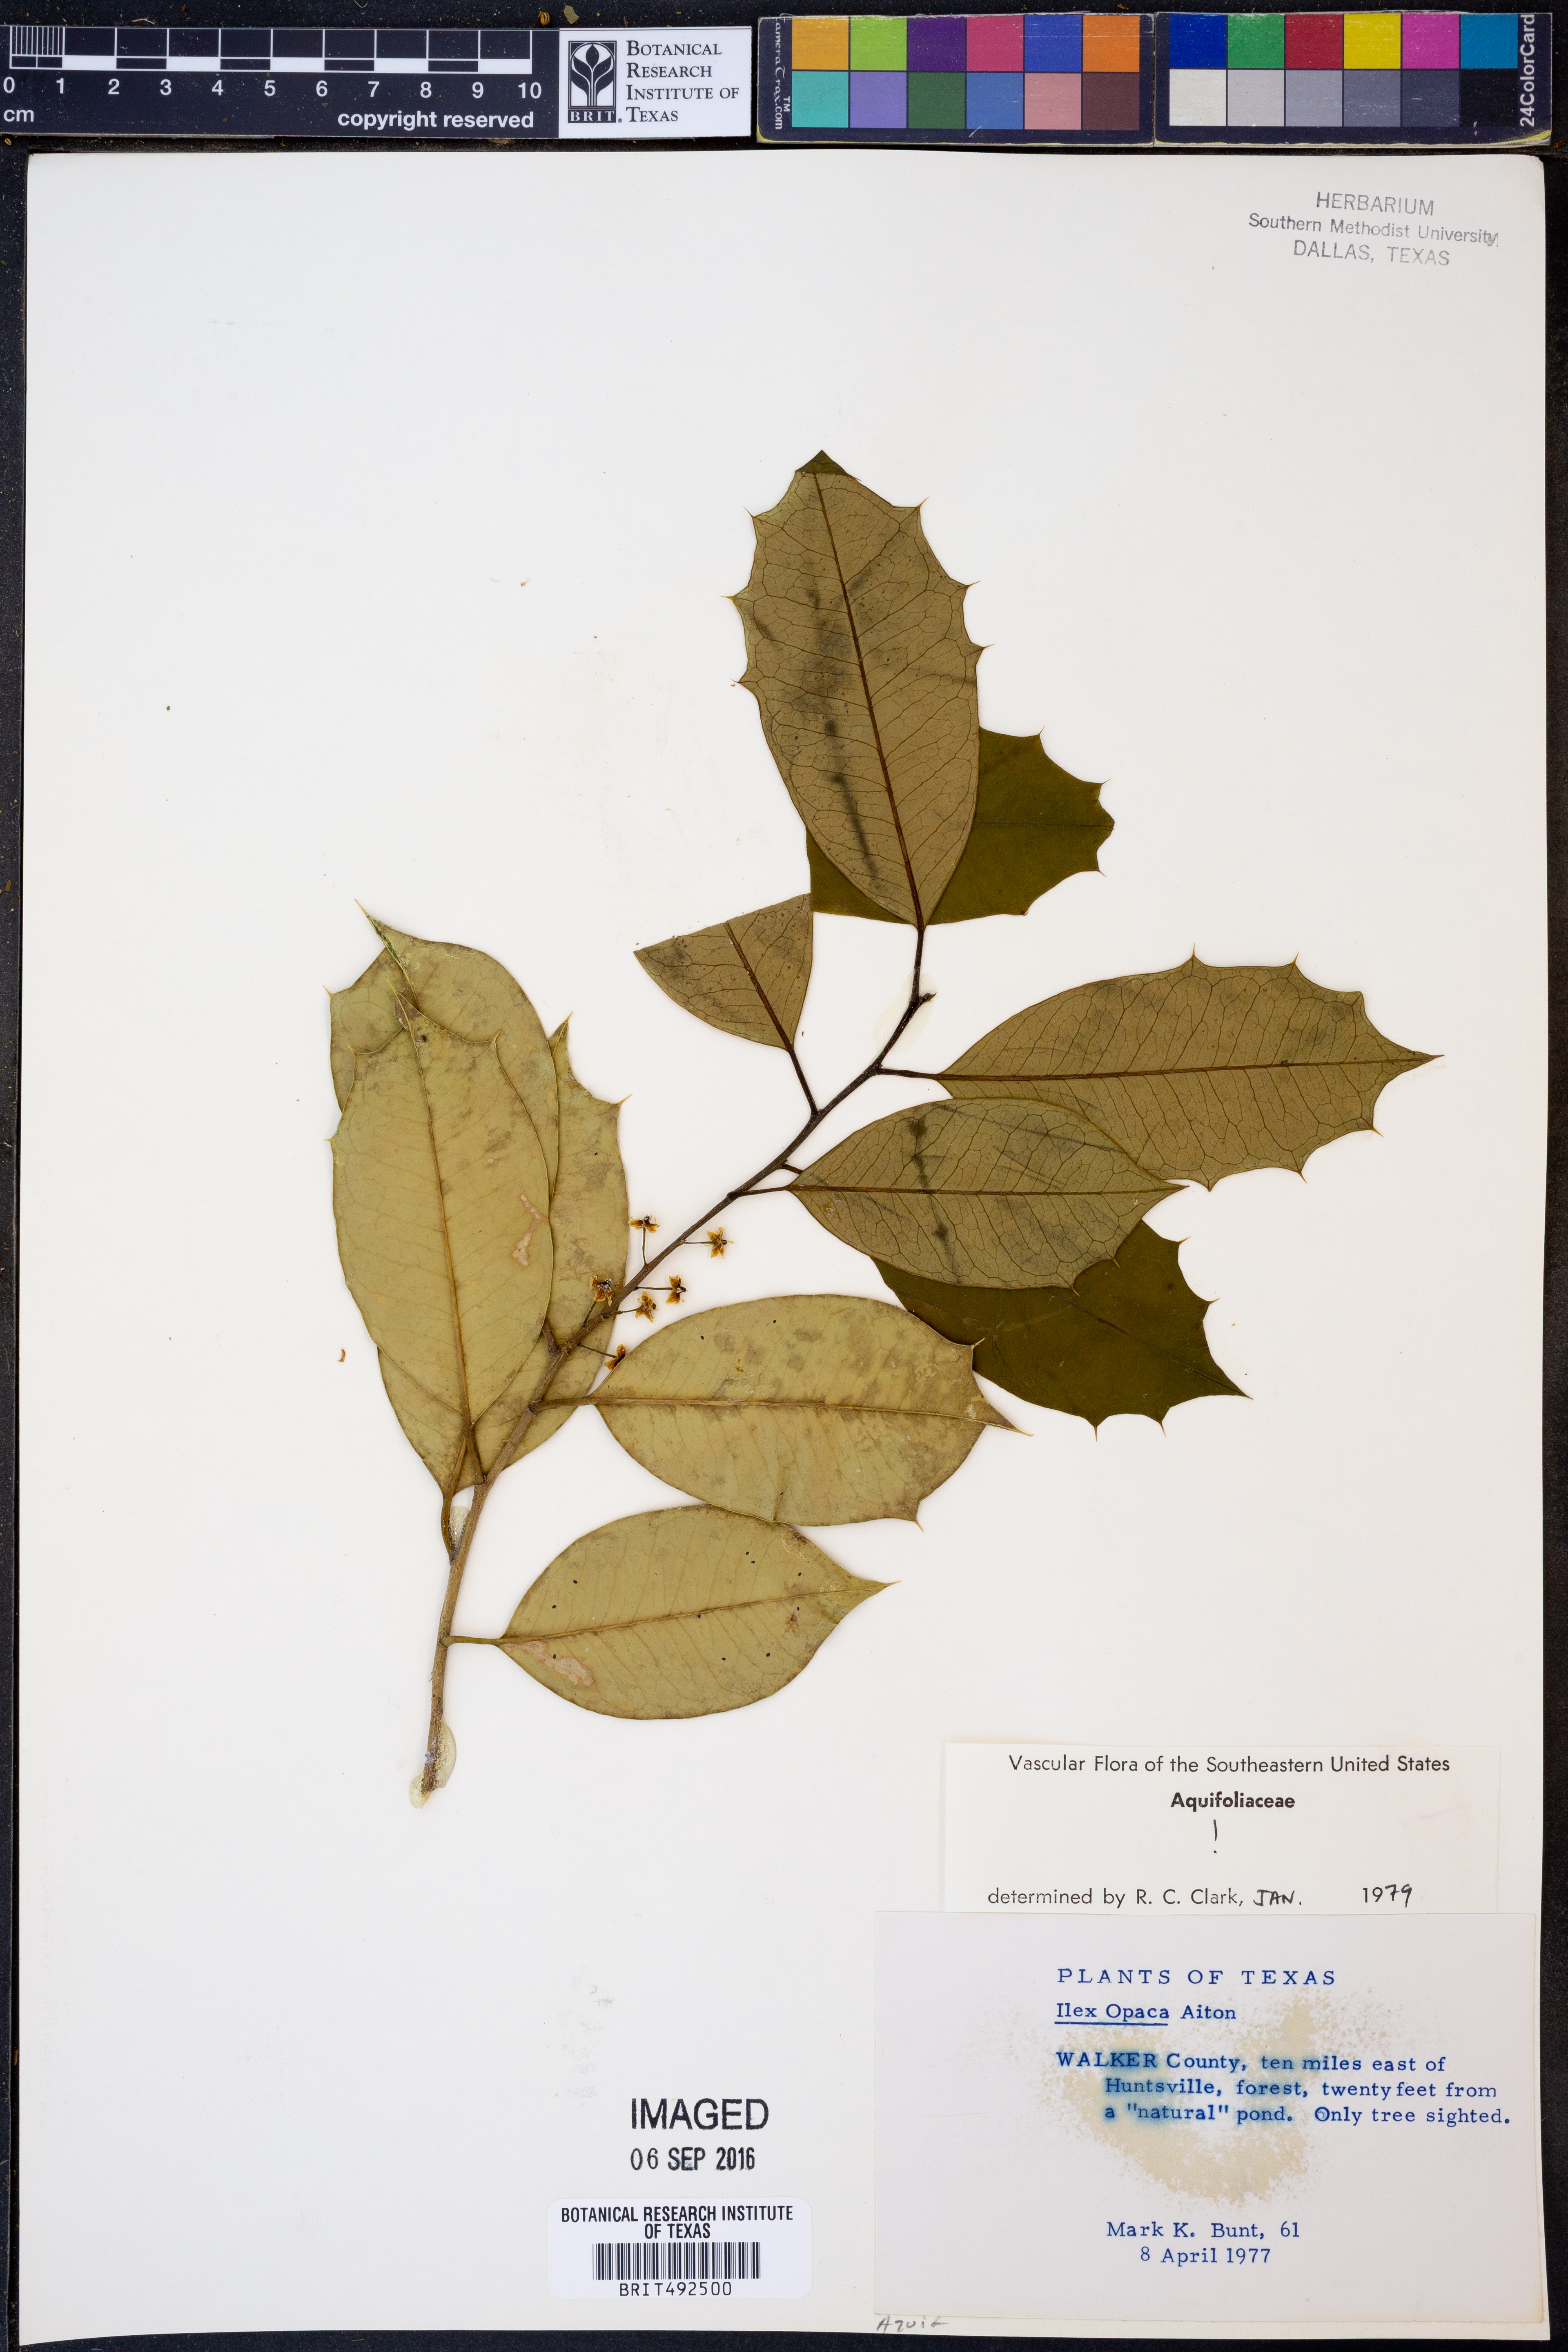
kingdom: Plantae
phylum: Tracheophyta
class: Magnoliopsida
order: Aquifoliales
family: Aquifoliaceae
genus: Ilex
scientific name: Ilex opaca
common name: American holly
